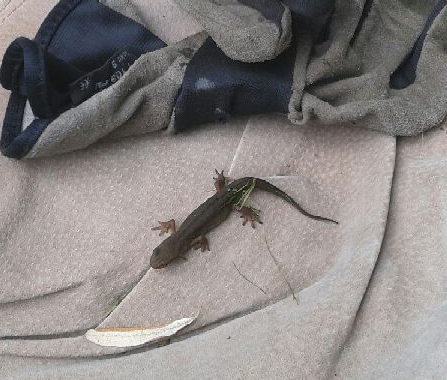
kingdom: Animalia
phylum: Chordata
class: Amphibia
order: Caudata
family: Salamandridae
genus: Lissotriton
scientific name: Lissotriton vulgaris
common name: Smooth newt
